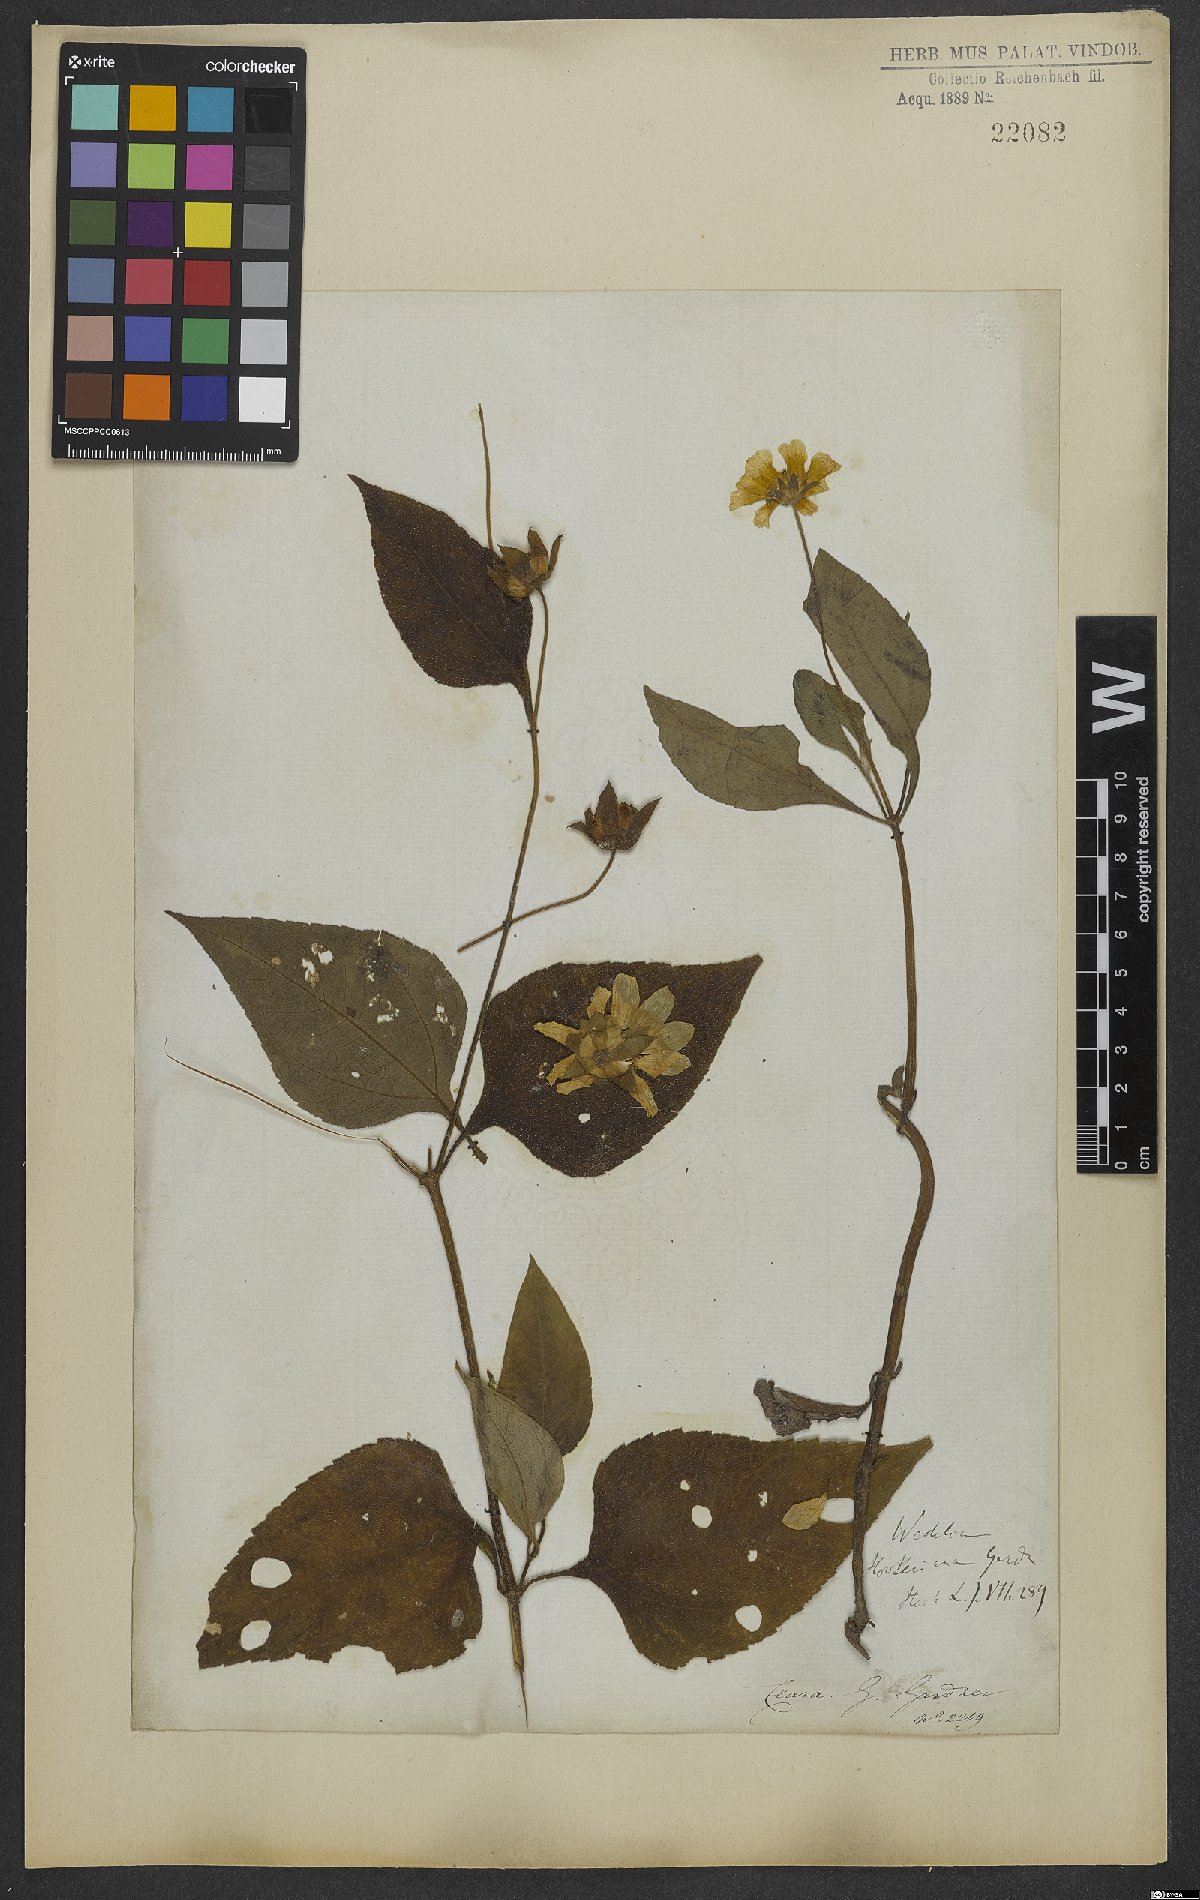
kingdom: Plantae
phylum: Tracheophyta
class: Magnoliopsida
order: Asterales
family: Asteraceae
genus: Wedelia
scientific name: Wedelia hookeriana
